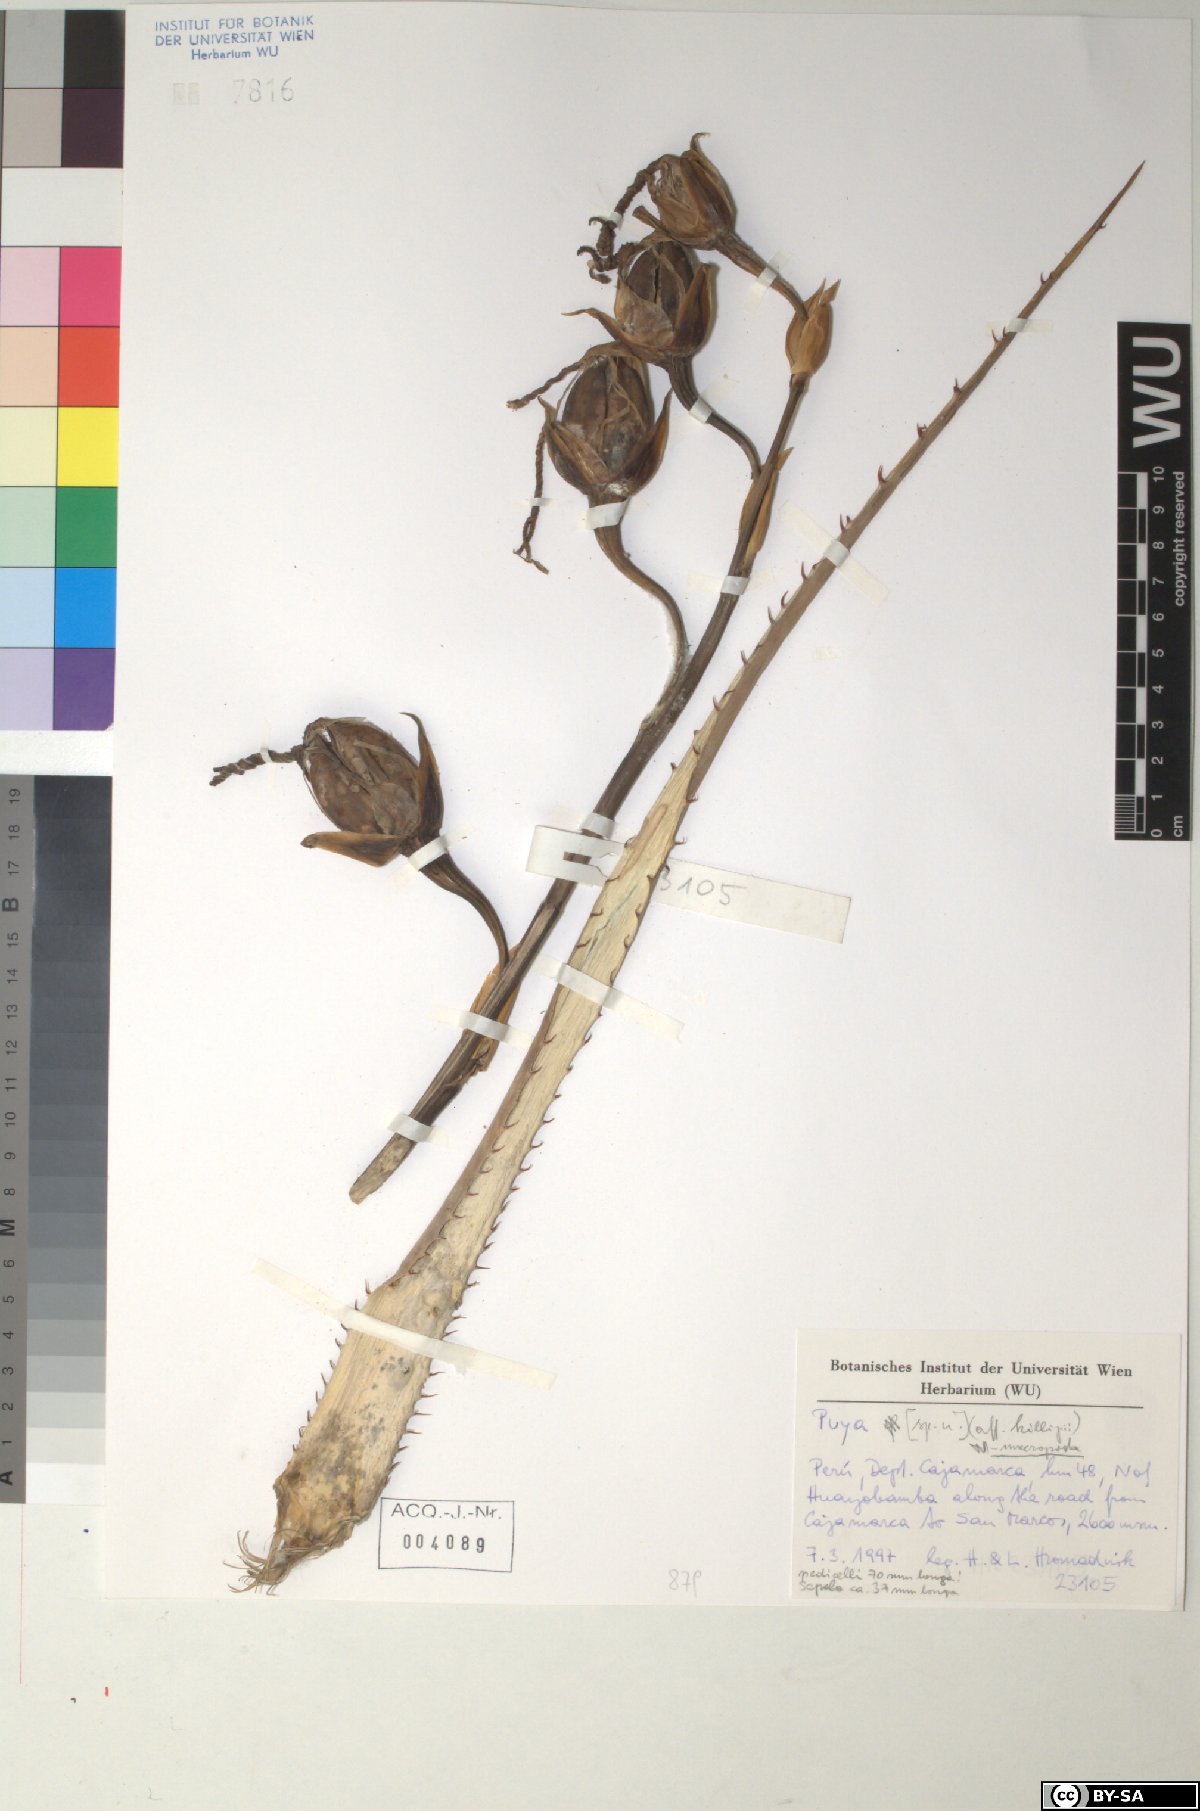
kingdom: Plantae
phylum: Tracheophyta
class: Liliopsida
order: Poales
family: Bromeliaceae
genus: Puya
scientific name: Puya macropoda
